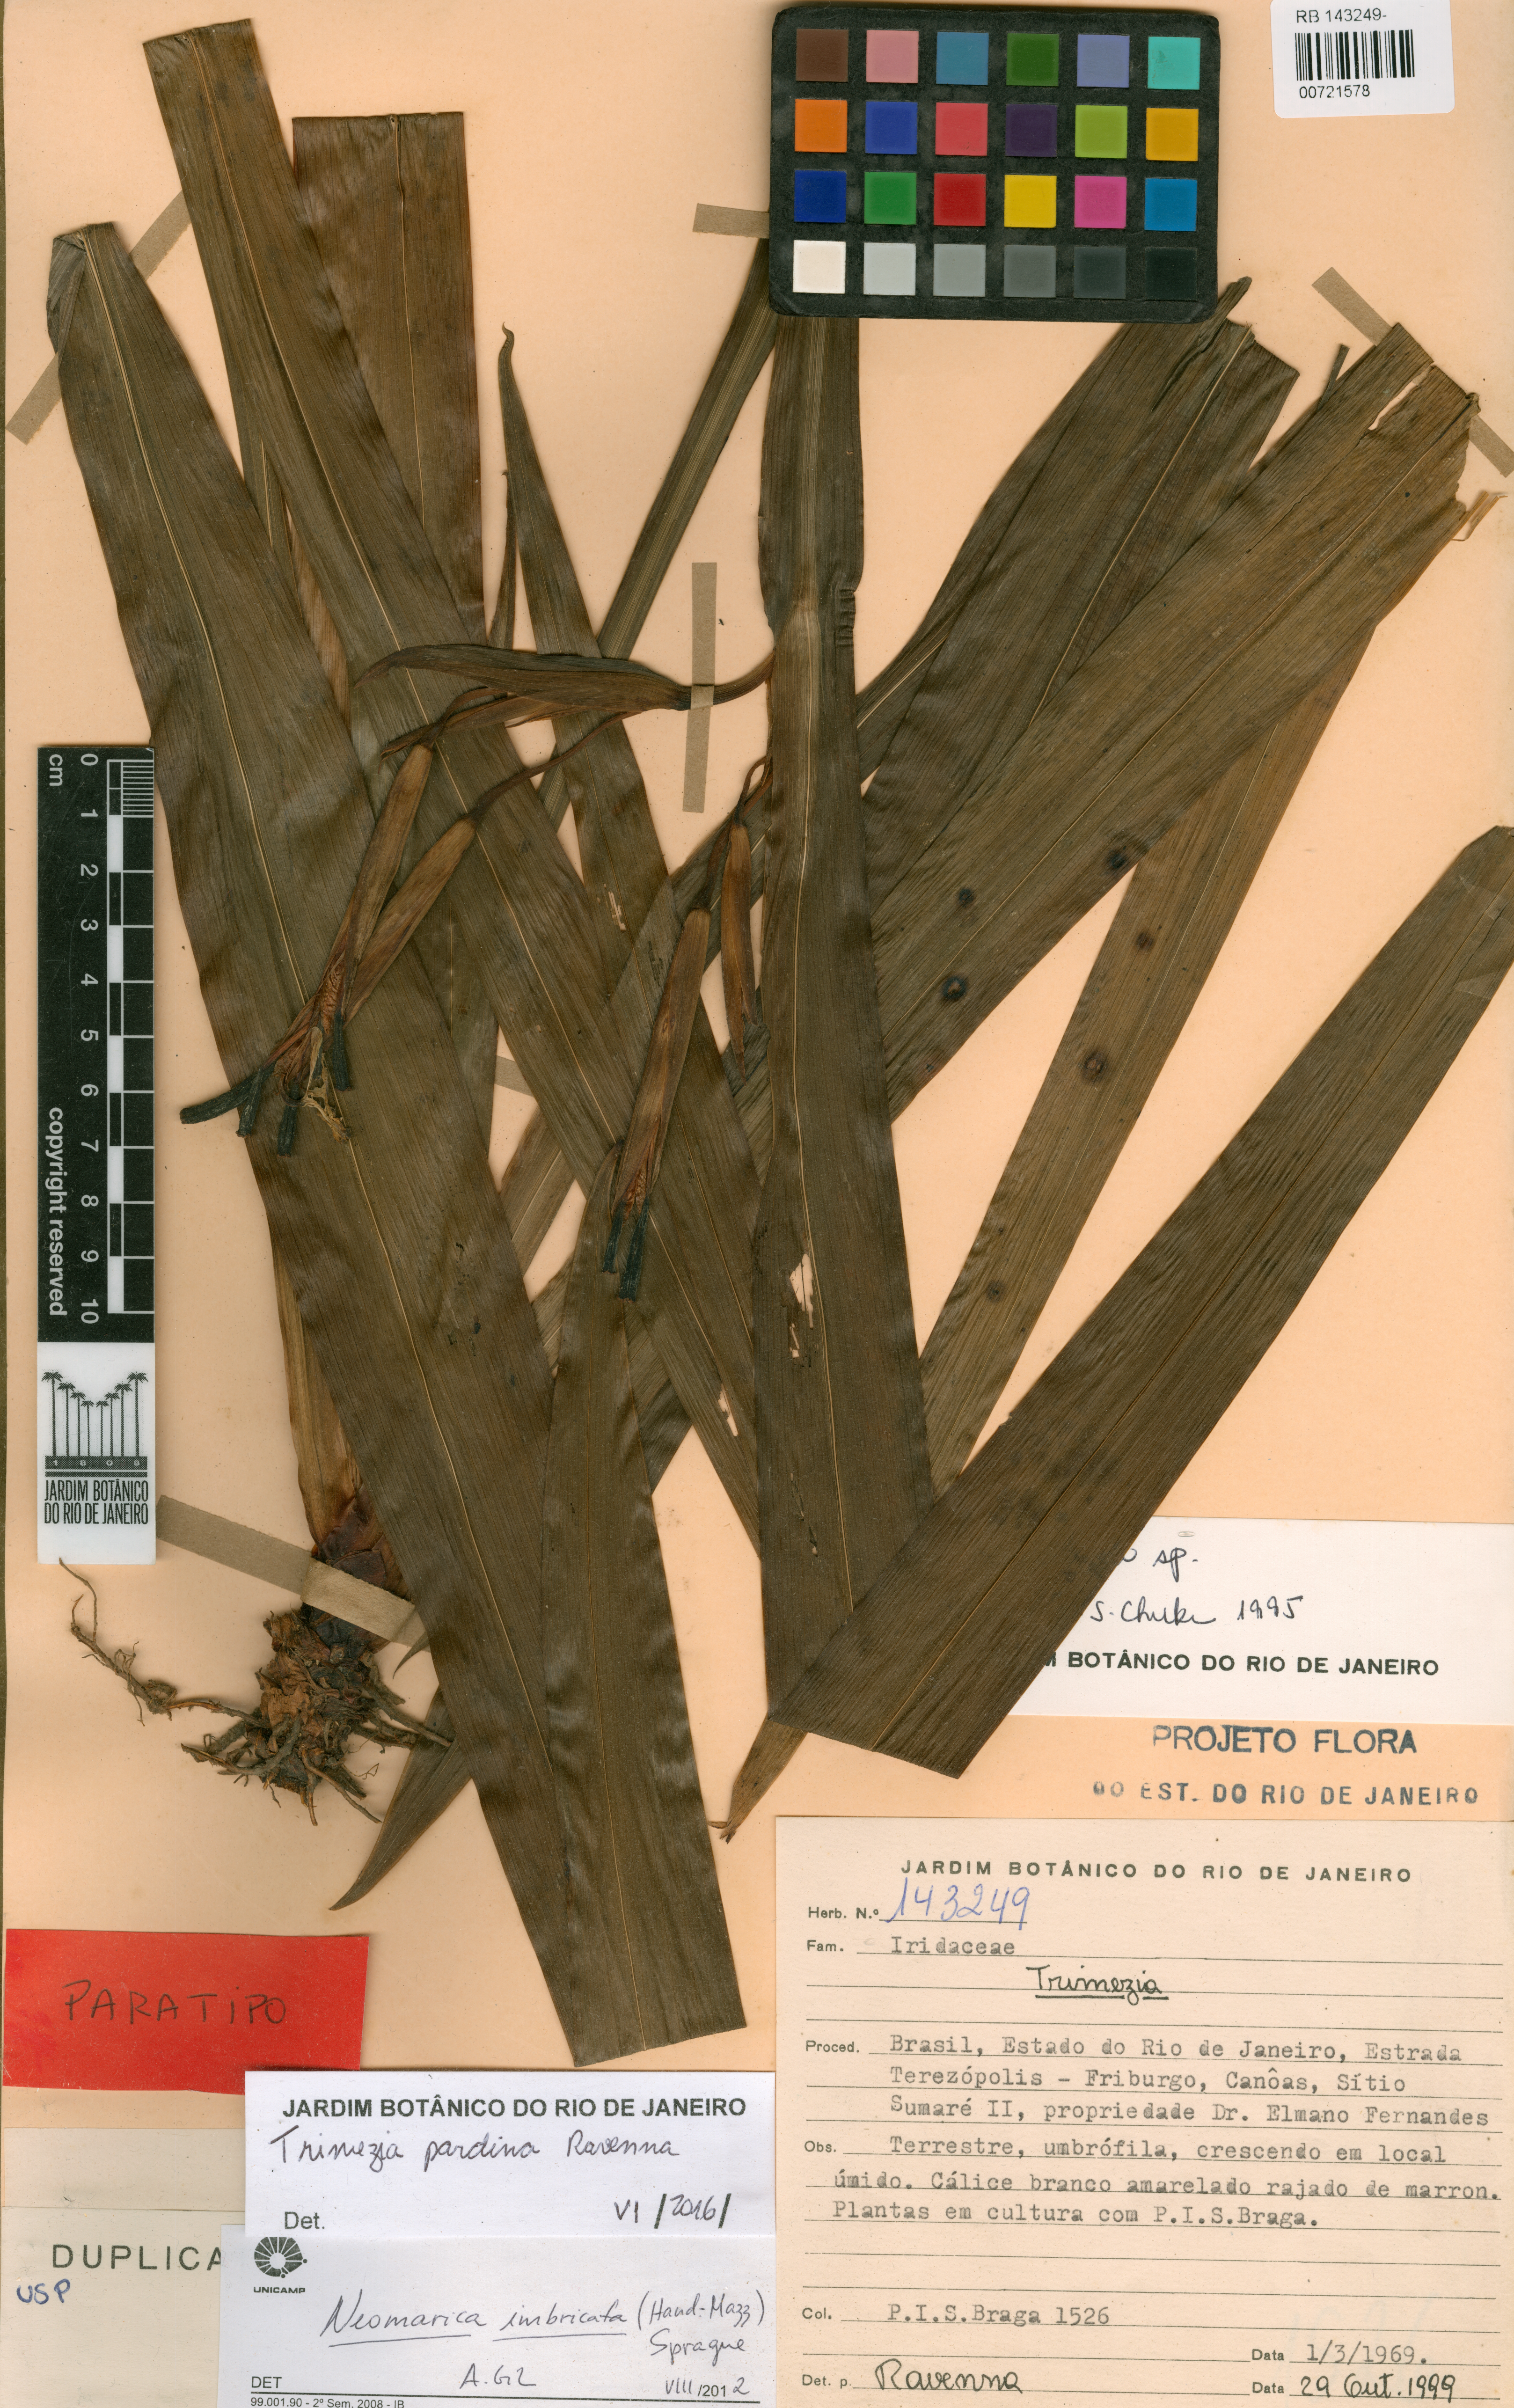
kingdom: Plantae
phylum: Tracheophyta
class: Liliopsida
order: Asparagales
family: Iridaceae
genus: Trimezia
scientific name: Trimezia pardina
